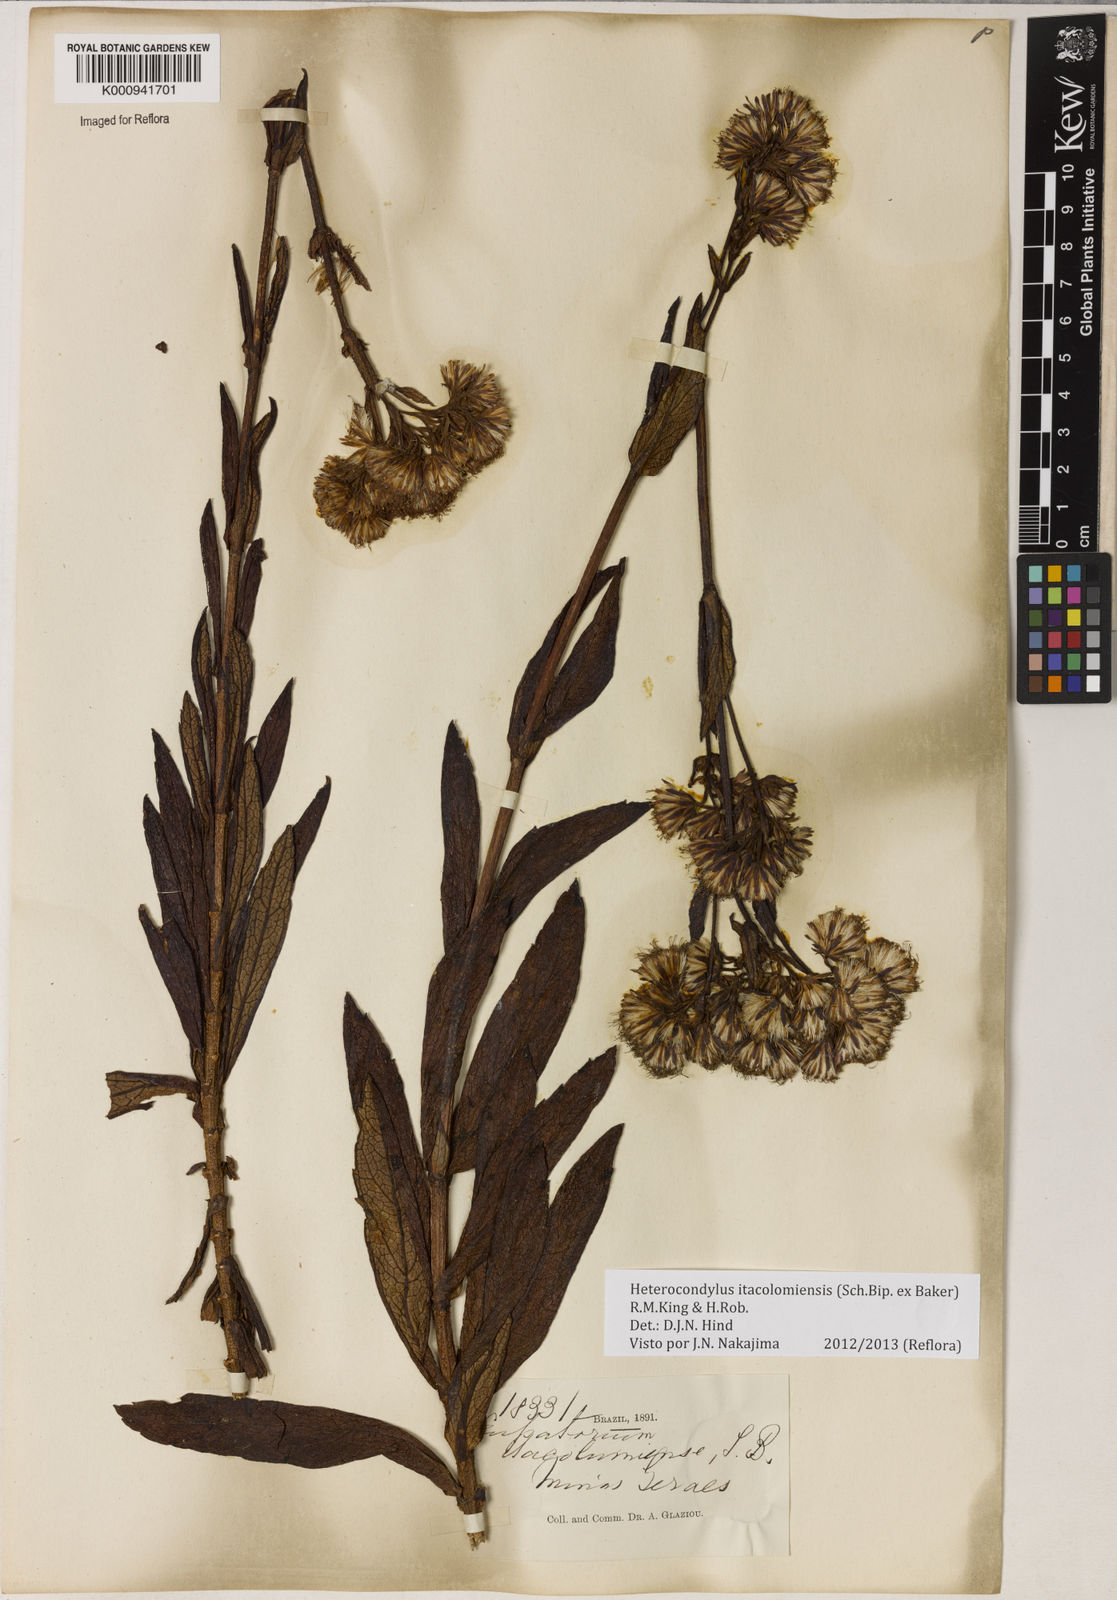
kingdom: Plantae
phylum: Tracheophyta
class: Magnoliopsida
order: Asterales
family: Asteraceae
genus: Heterocondylus
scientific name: Heterocondylus
